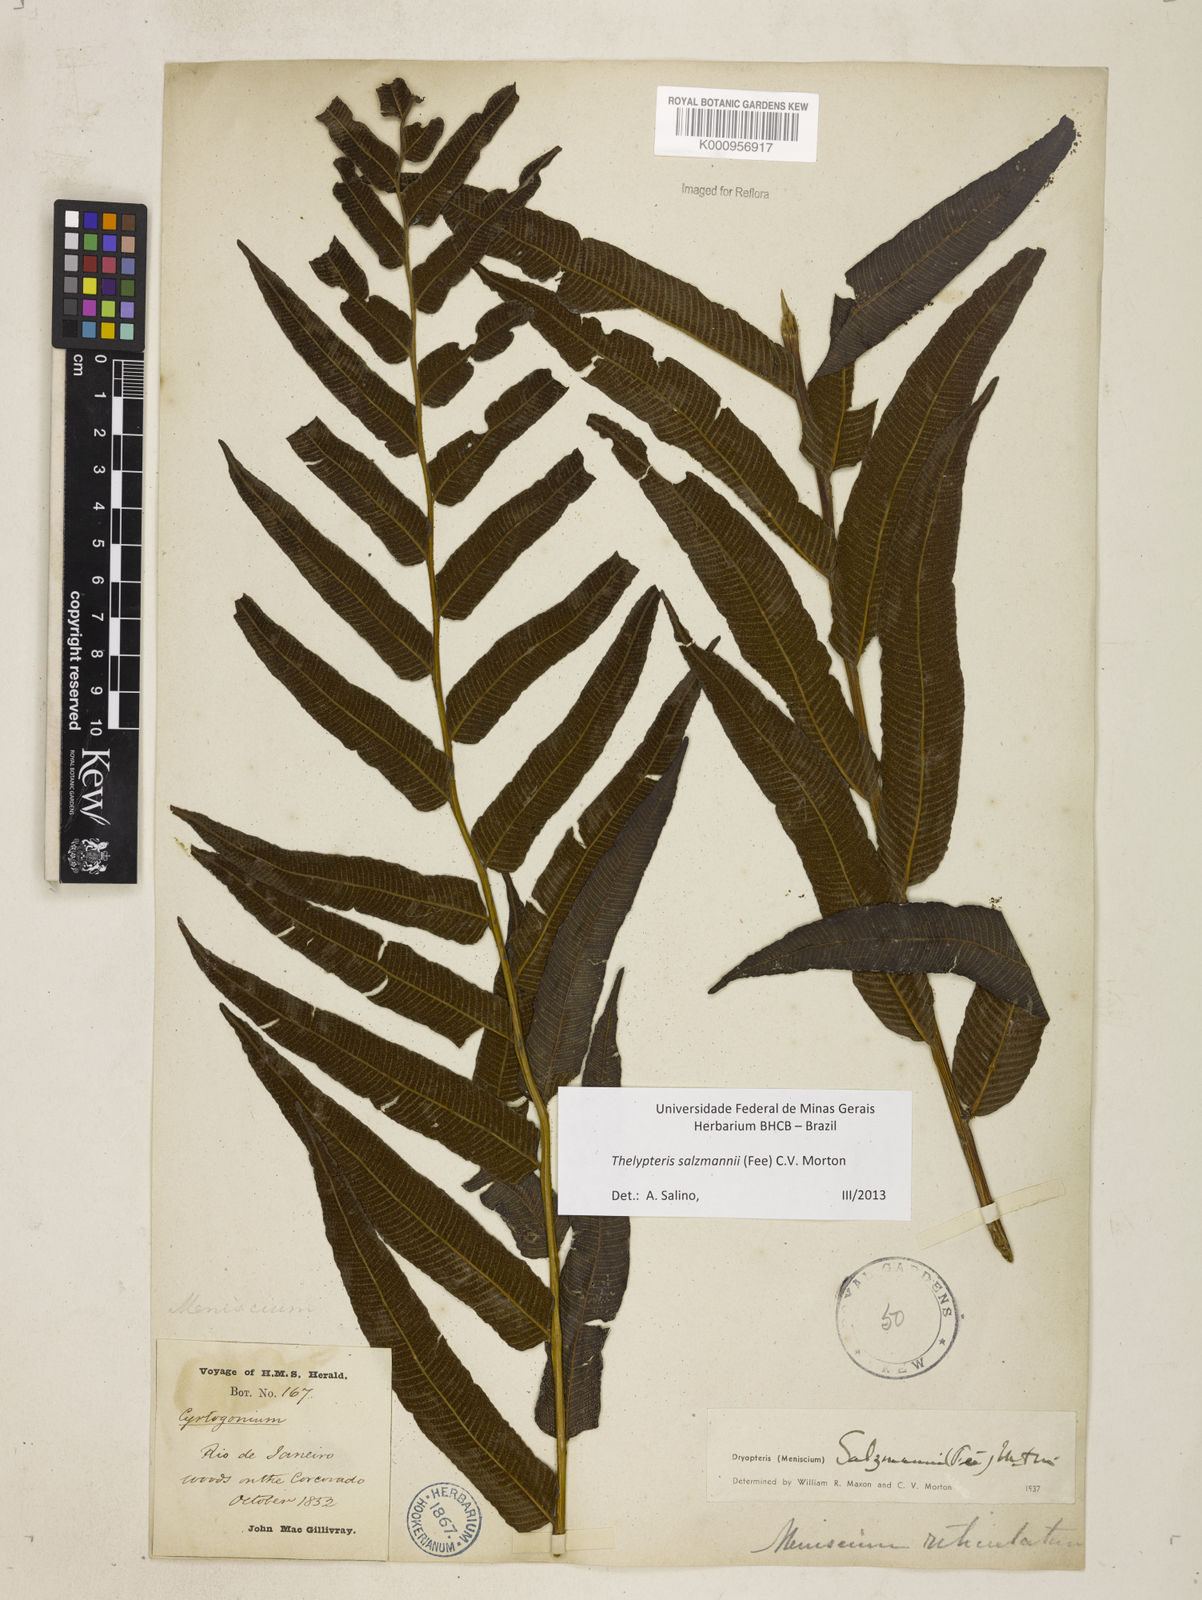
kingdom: Plantae
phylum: Tracheophyta
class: Polypodiopsida
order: Polypodiales
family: Thelypteridaceae
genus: Meniscium
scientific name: Meniscium arborescens
